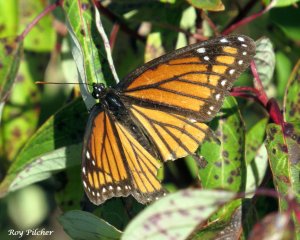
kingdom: Animalia
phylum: Arthropoda
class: Insecta
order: Lepidoptera
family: Nymphalidae
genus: Limenitis
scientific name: Limenitis archippus
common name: Viceroy
